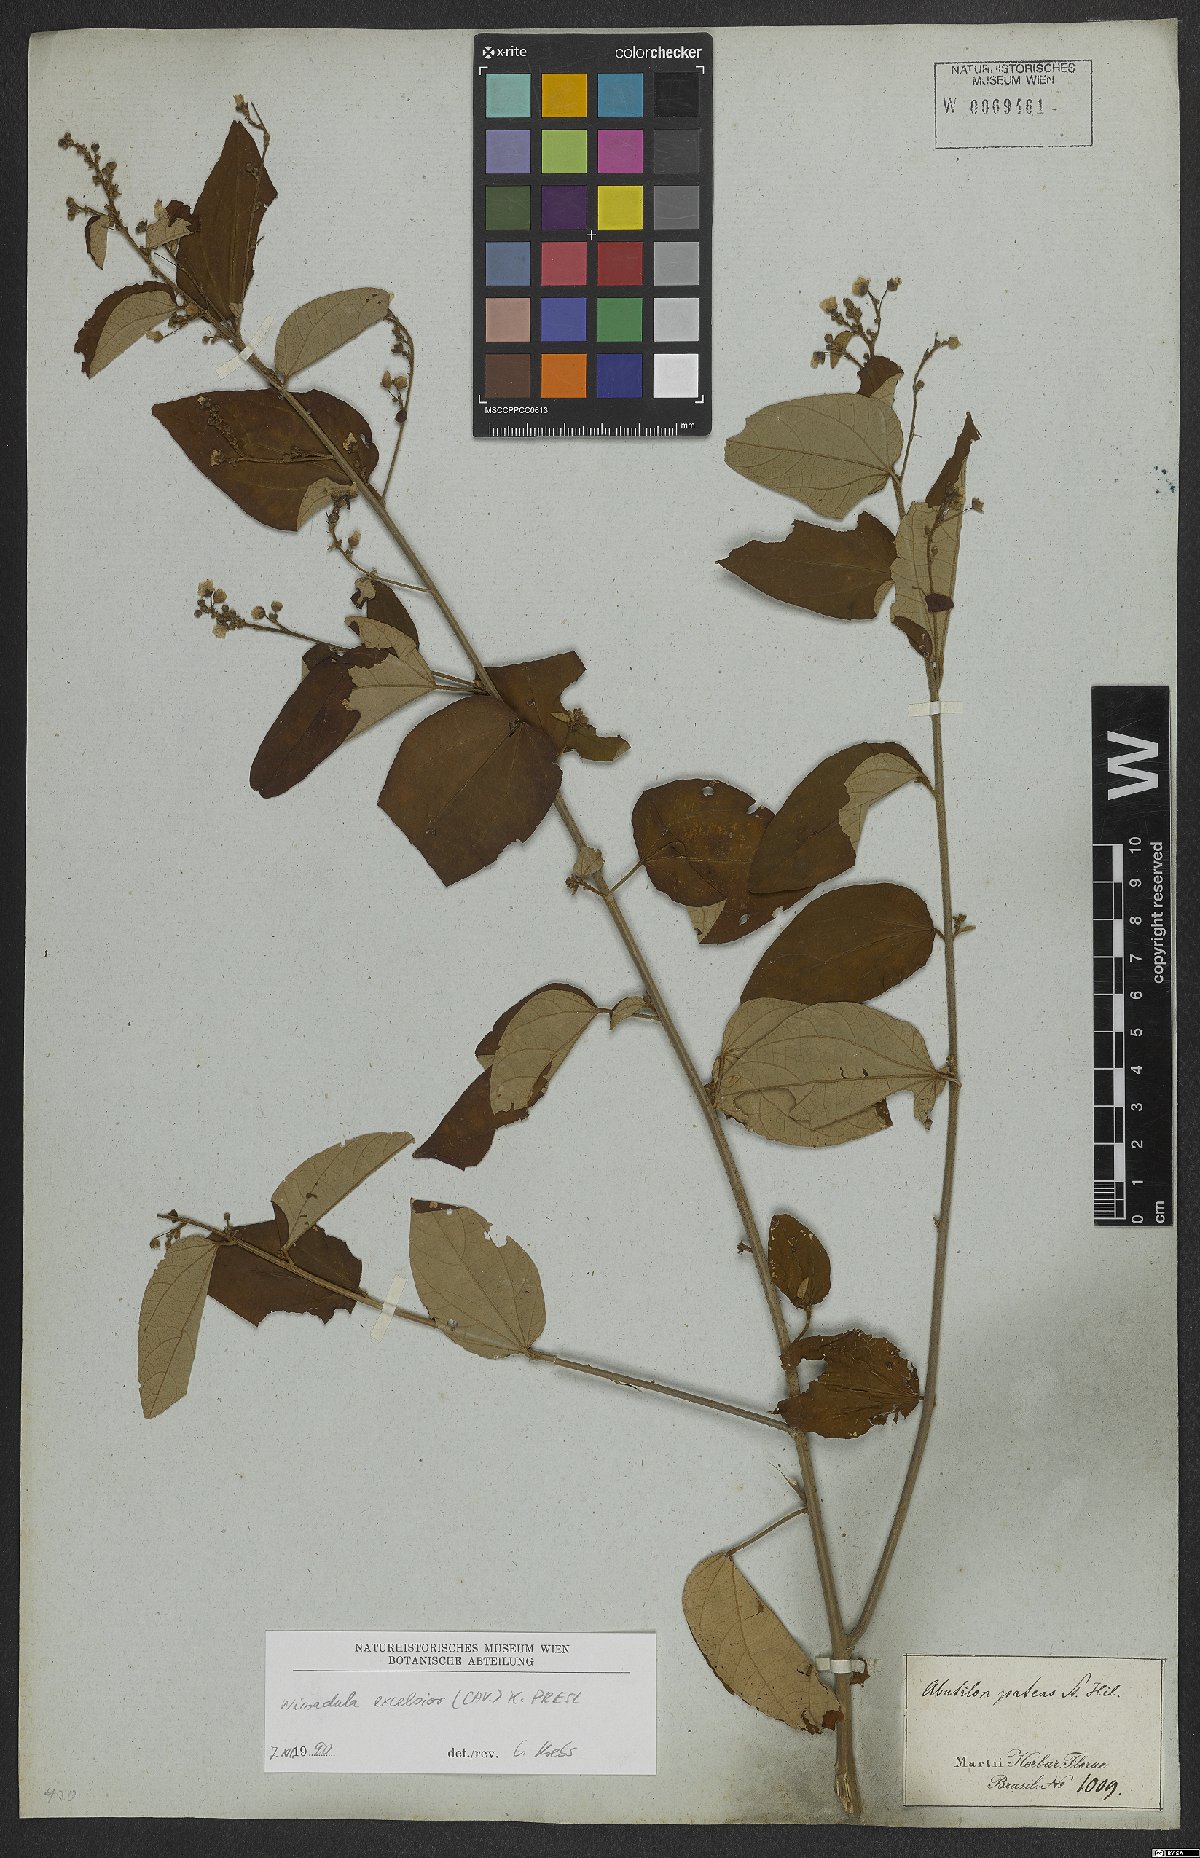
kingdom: Plantae
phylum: Tracheophyta
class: Magnoliopsida
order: Malvales
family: Malvaceae
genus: Wissadula
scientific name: Wissadula excelsior
